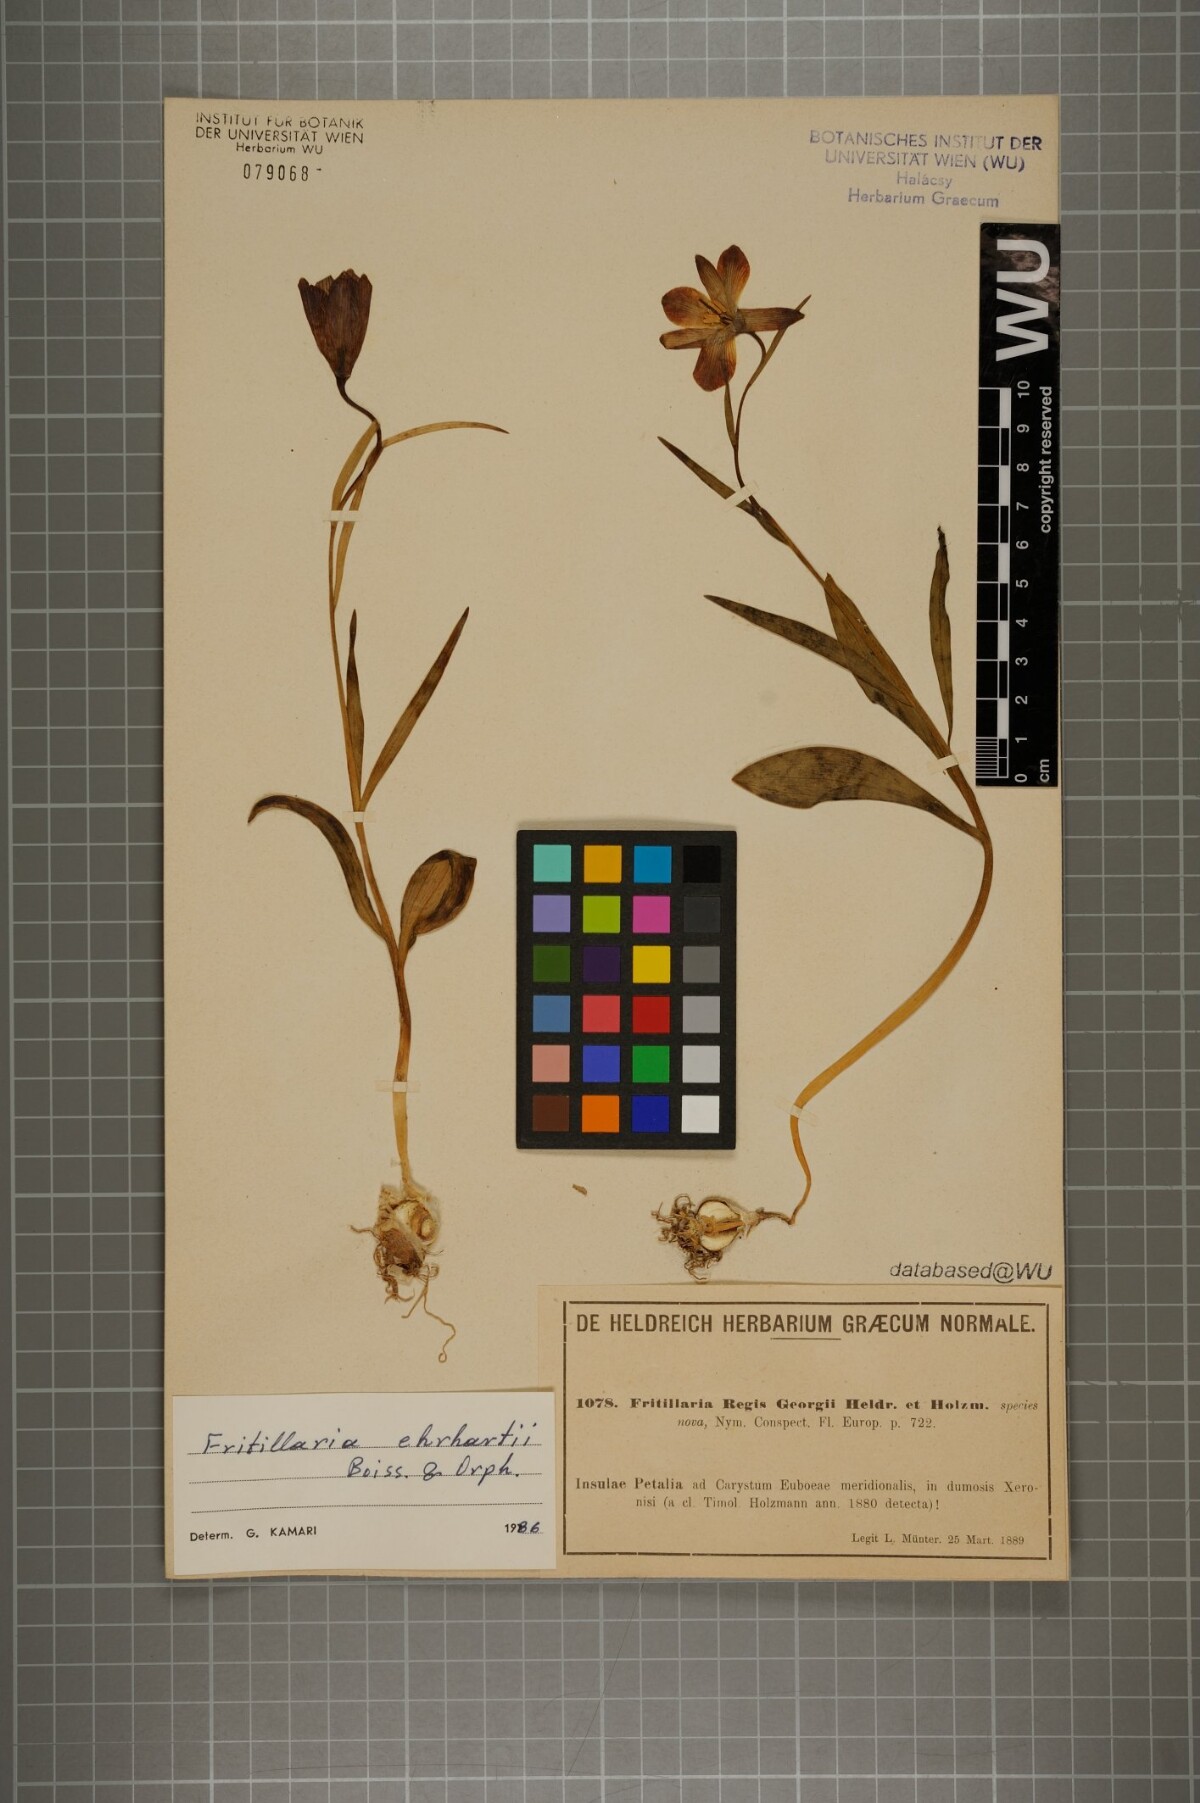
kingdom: Plantae
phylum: Tracheophyta
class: Liliopsida
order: Liliales
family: Liliaceae
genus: Fritillaria
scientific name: Fritillaria ehrhartii
